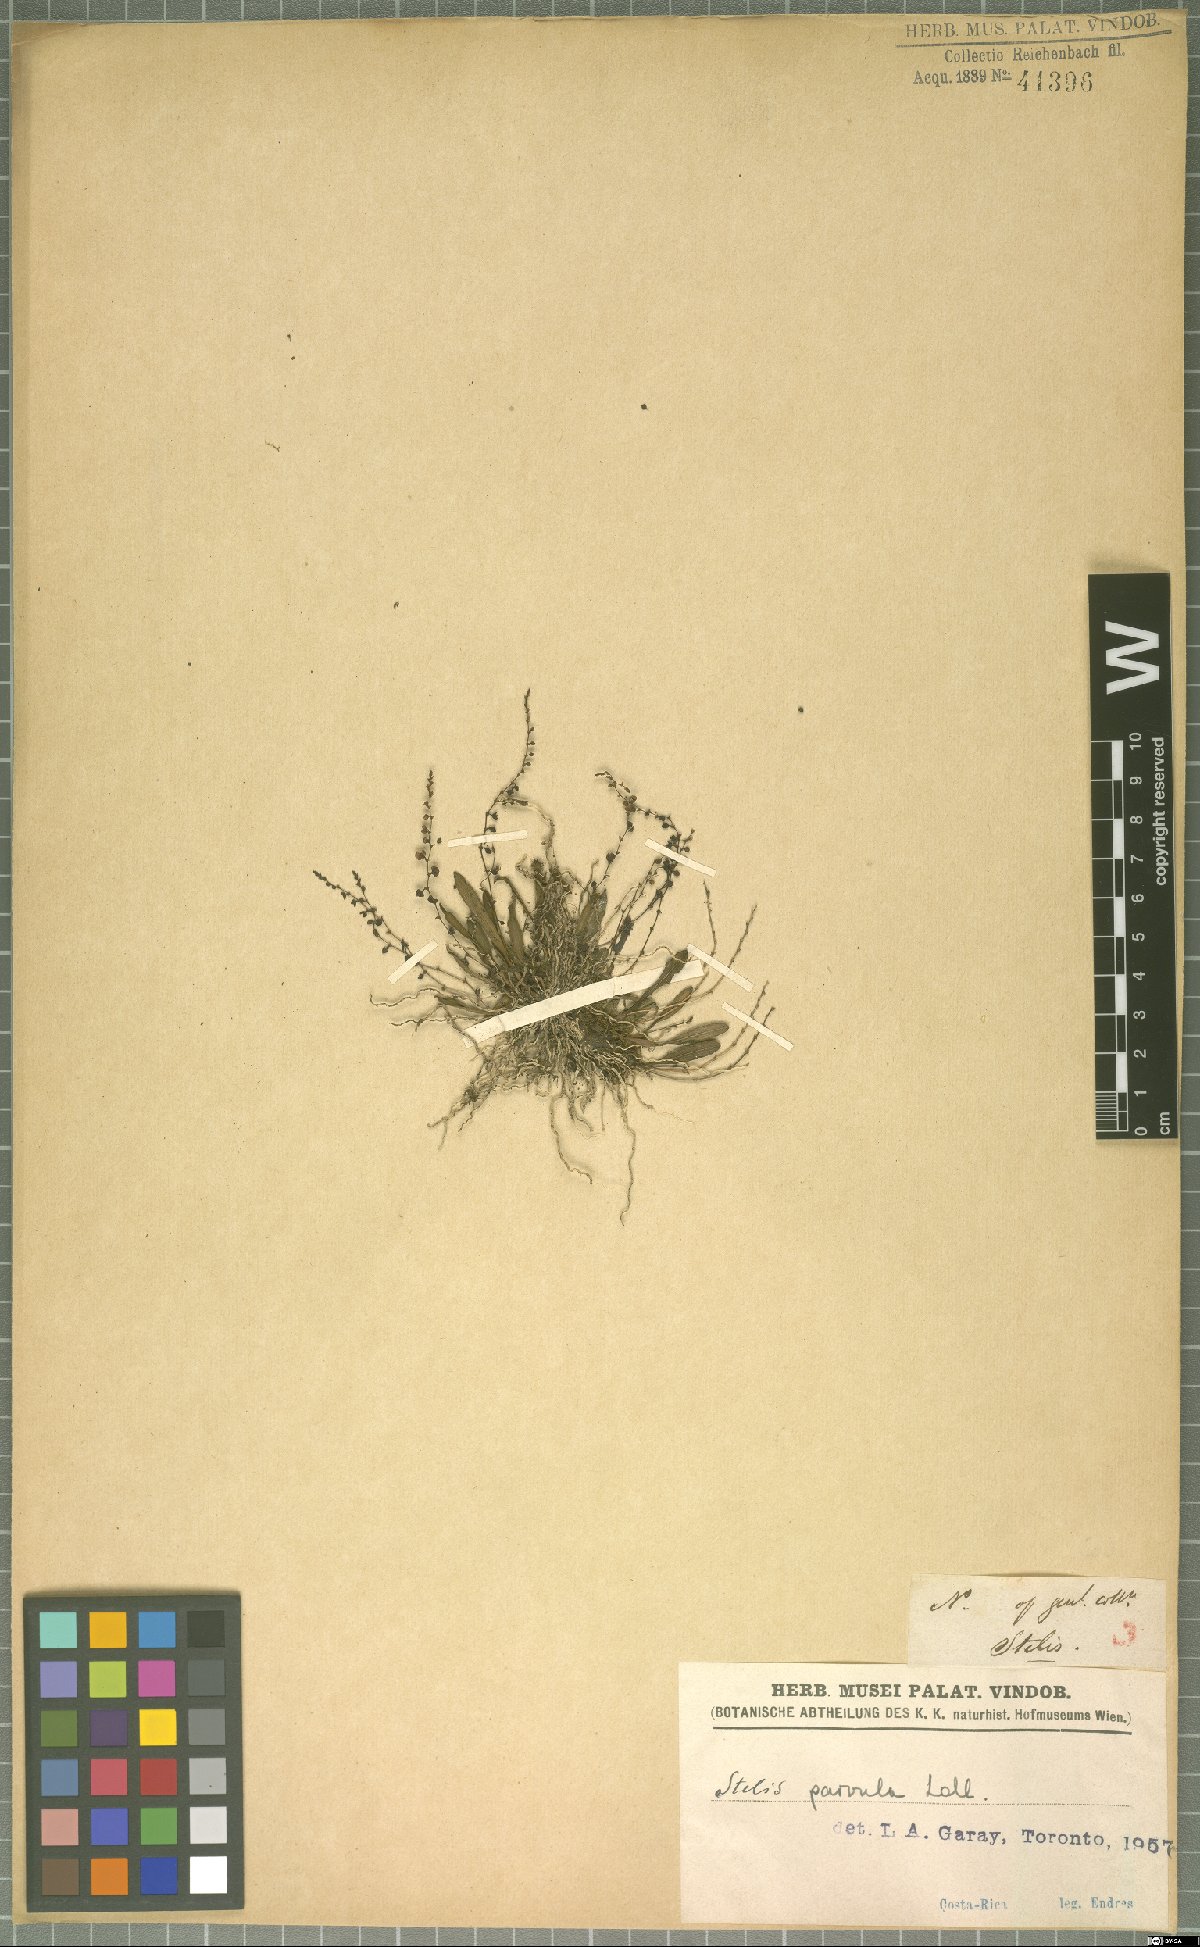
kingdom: Plantae
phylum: Tracheophyta
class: Liliopsida
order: Asparagales
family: Orchidaceae
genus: Stelis
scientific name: Stelis parvula
